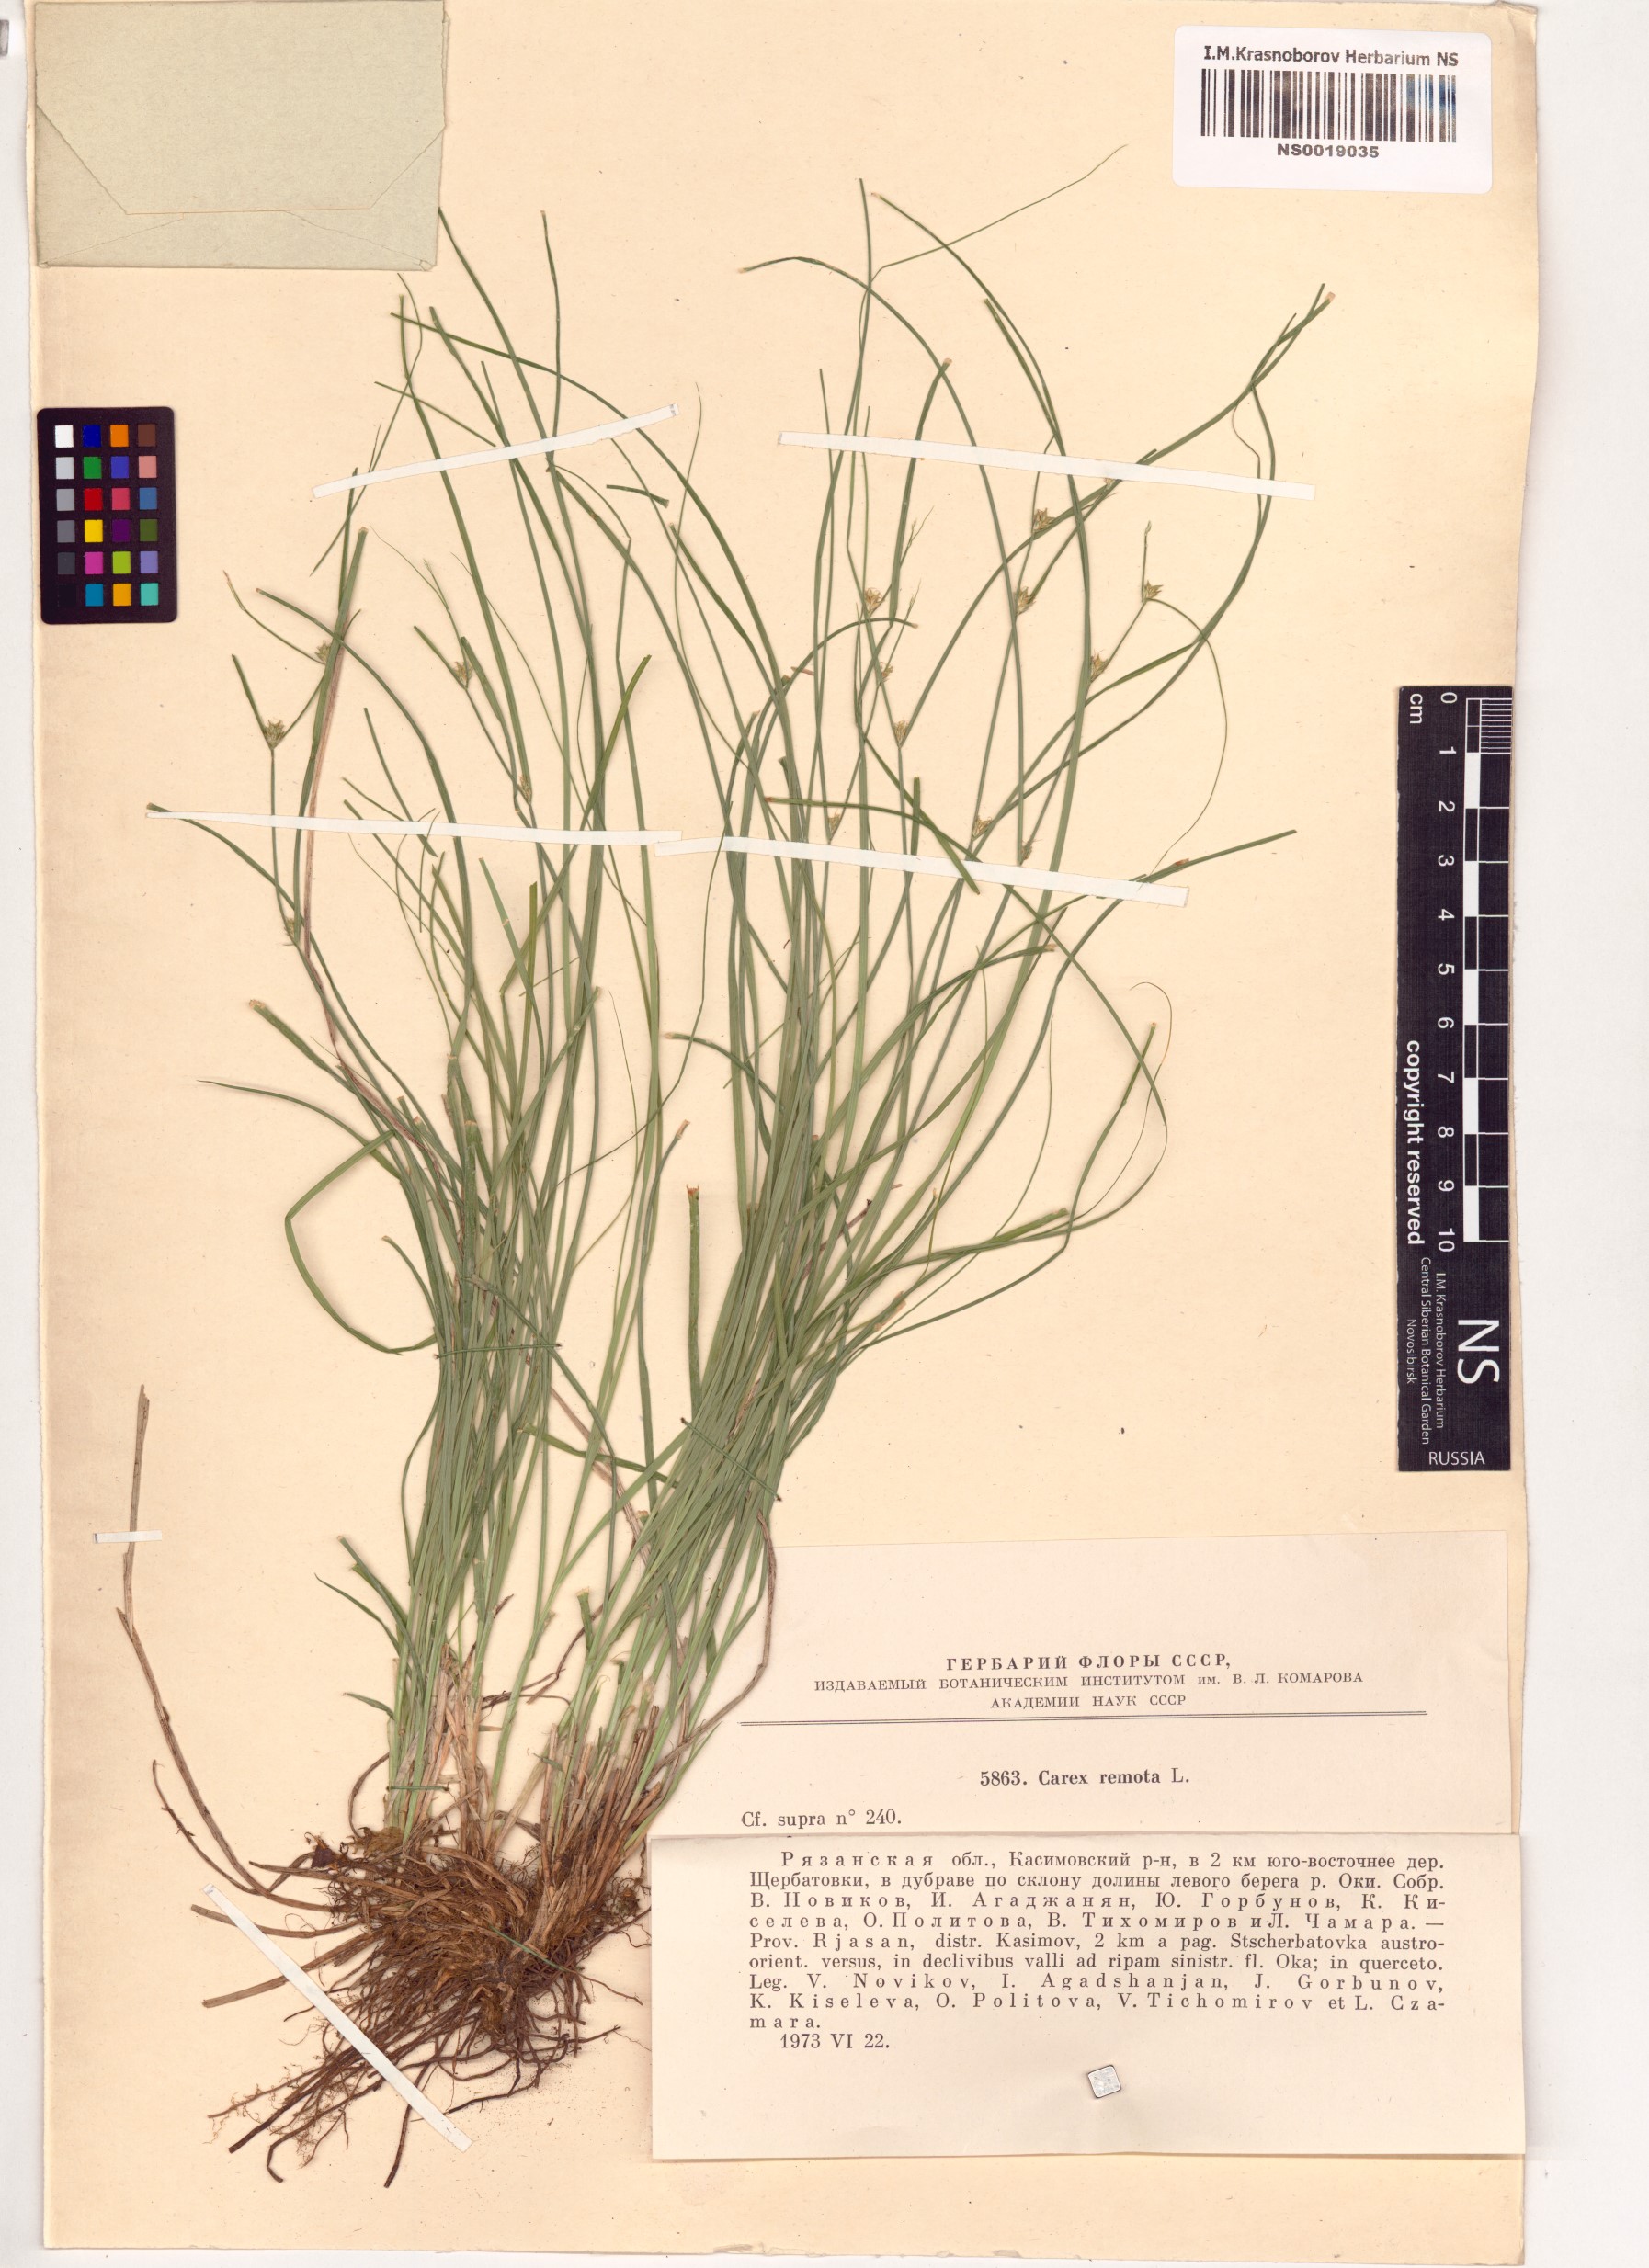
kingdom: Plantae
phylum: Tracheophyta
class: Liliopsida
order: Poales
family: Cyperaceae
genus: Carex
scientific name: Carex remota
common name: Remote sedge
